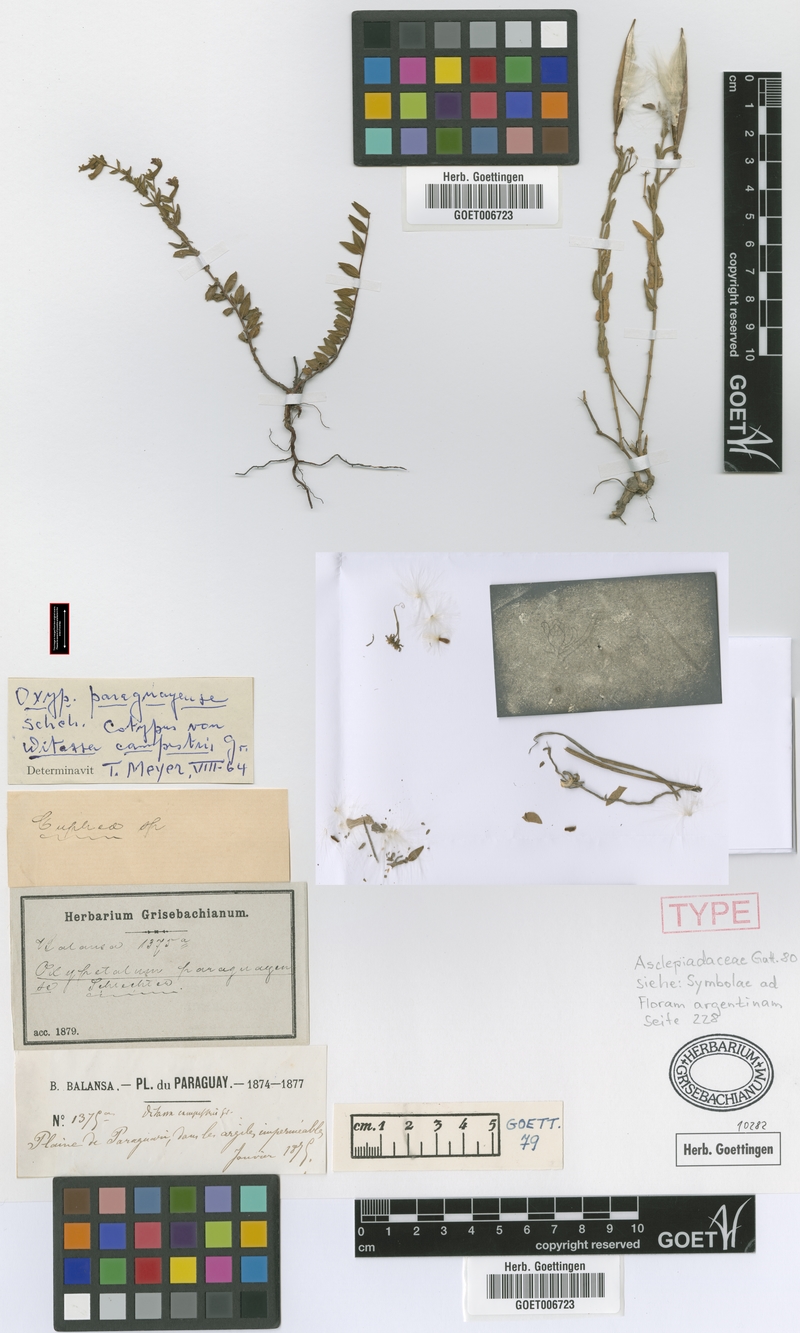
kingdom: Plantae
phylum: Tracheophyta
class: Magnoliopsida
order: Gentianales
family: Apocynaceae
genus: Oxypetalum
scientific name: Oxypetalum humile
